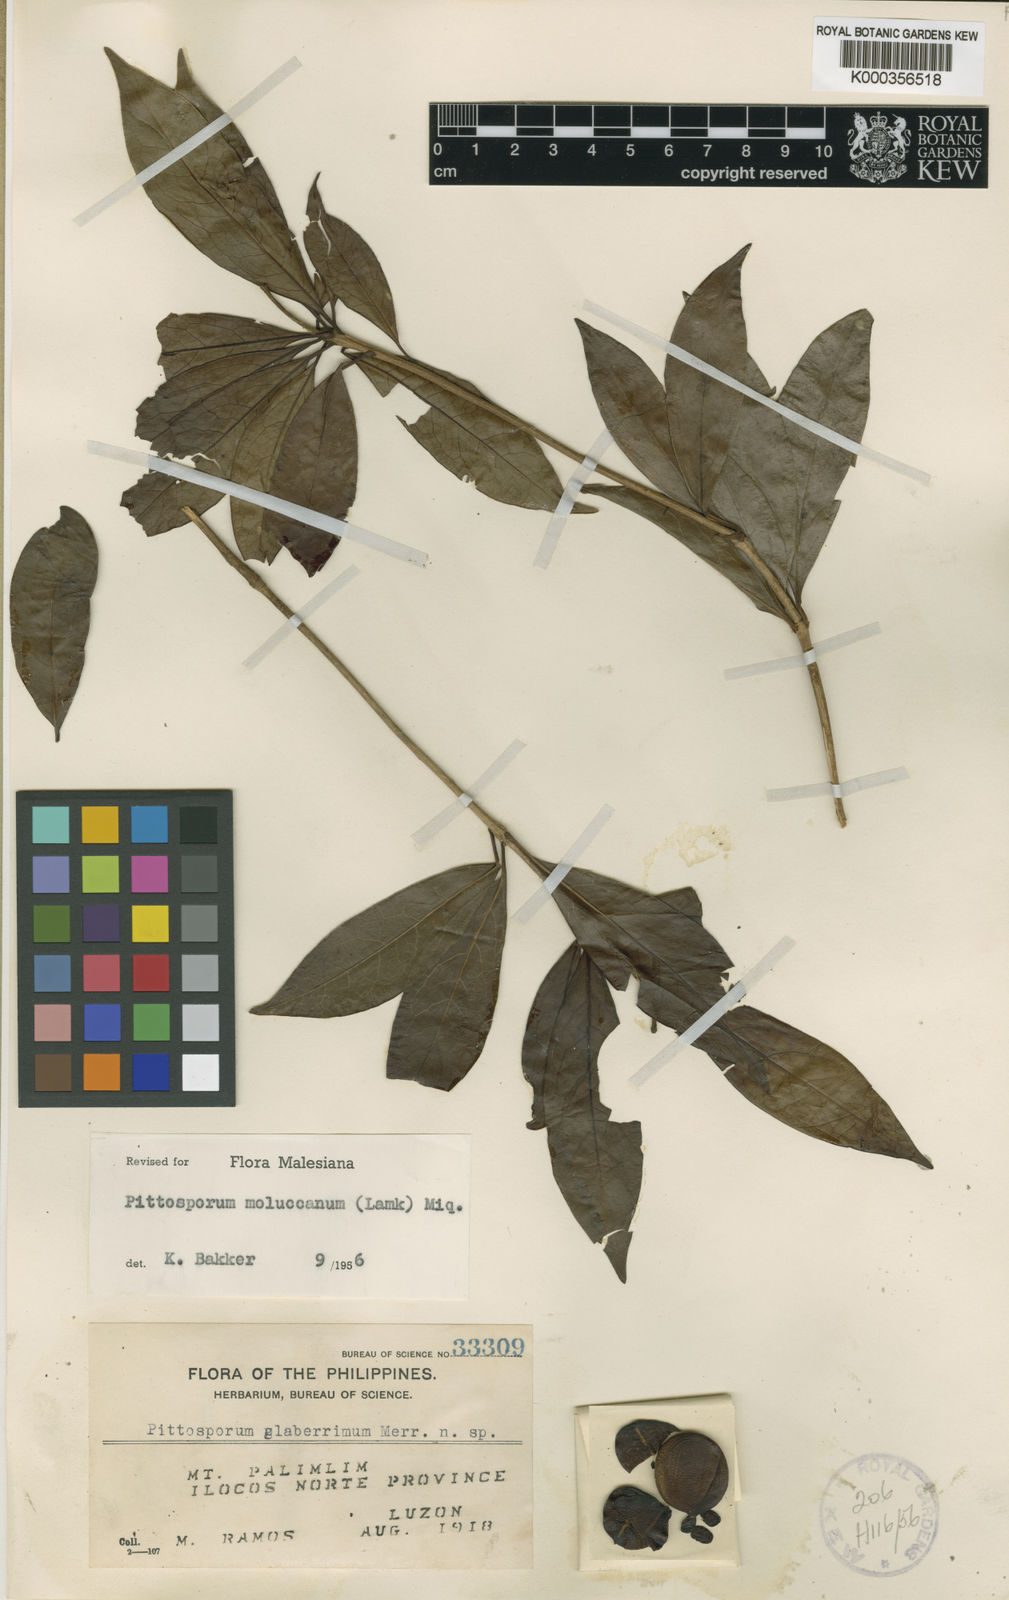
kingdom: Plantae
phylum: Tracheophyta
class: Magnoliopsida
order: Apiales
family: Pittosporaceae
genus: Pittosporum
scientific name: Pittosporum moluccanum
